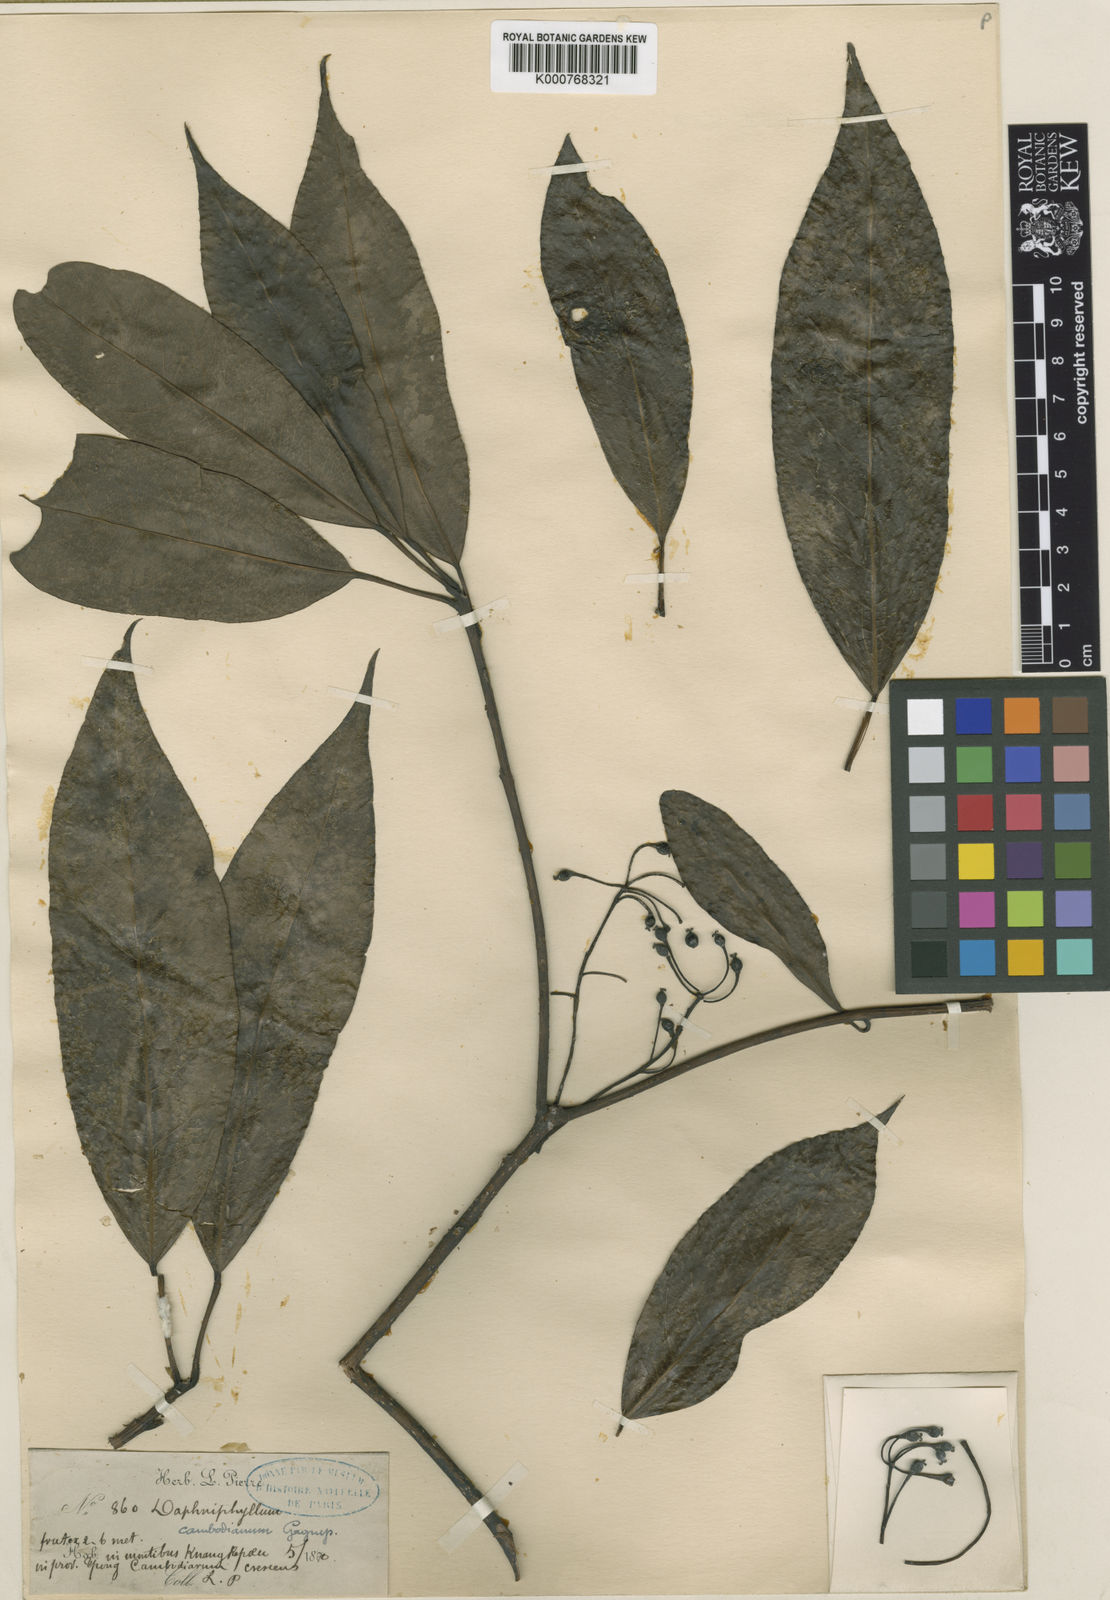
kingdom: Plantae
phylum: Tracheophyta
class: Magnoliopsida
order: Saxifragales
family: Daphniphyllaceae
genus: Daphniphyllum
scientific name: Daphniphyllum beddomei
